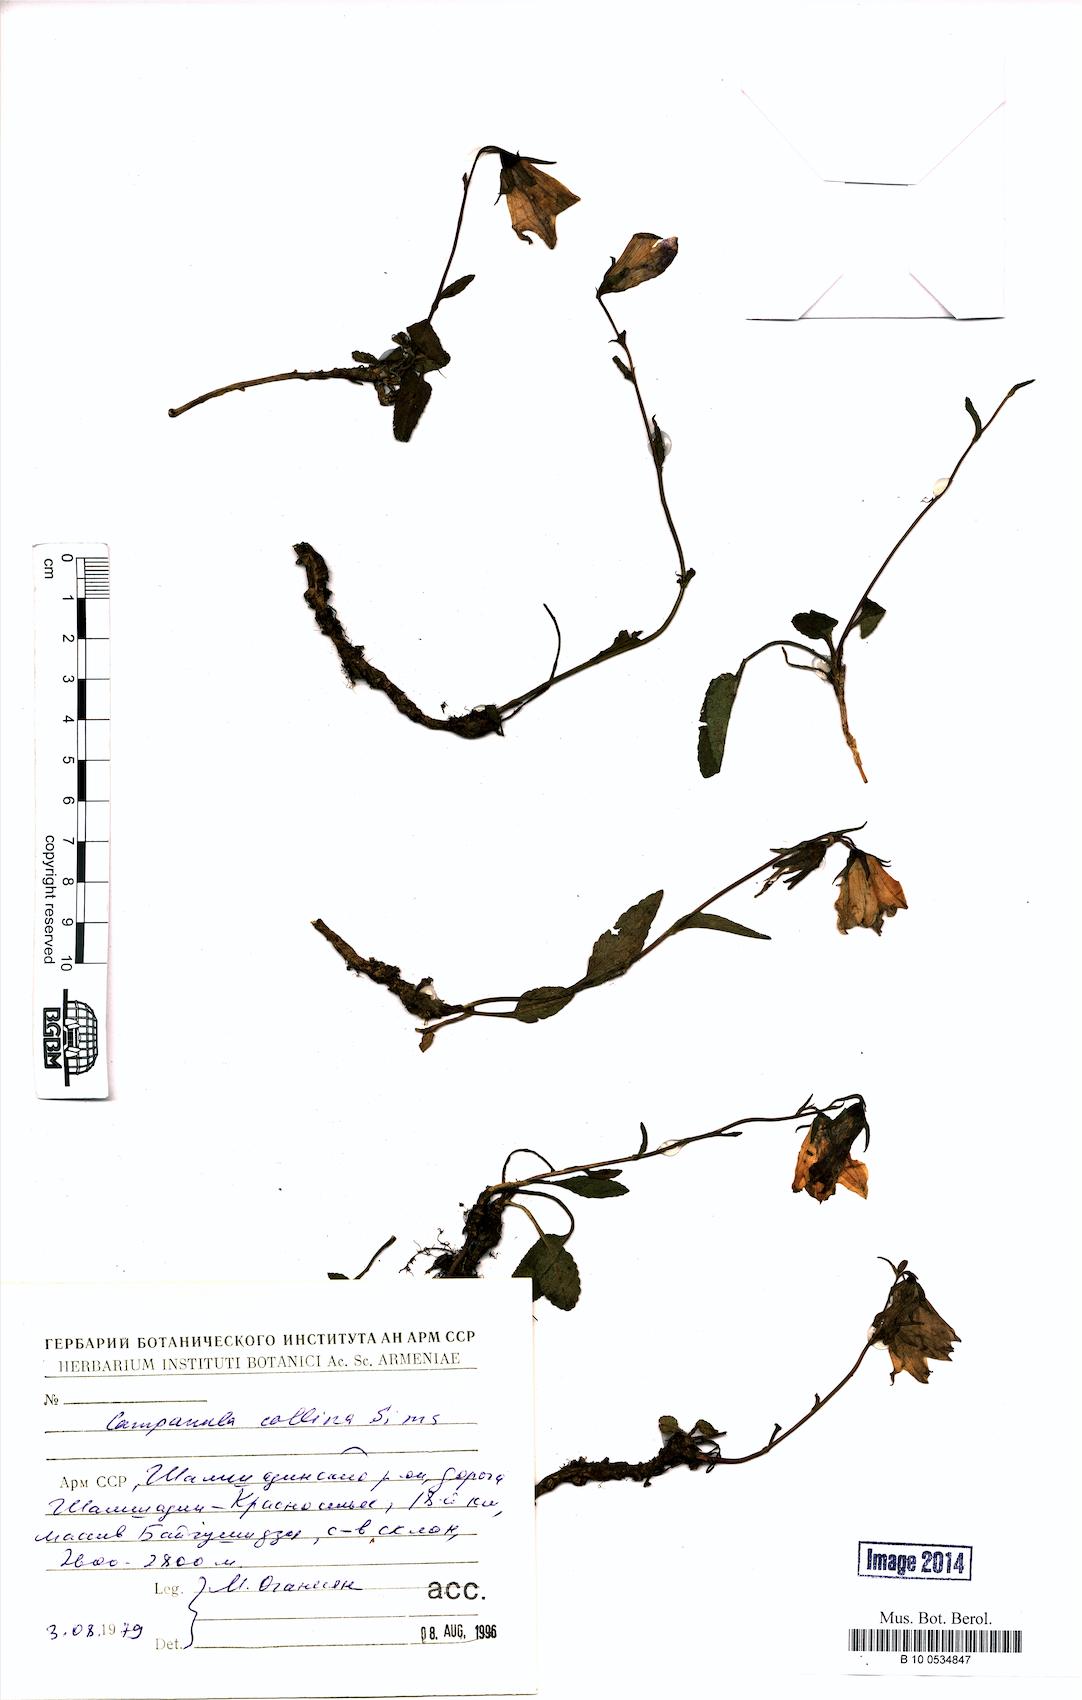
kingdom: Plantae
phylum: Tracheophyta
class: Magnoliopsida
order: Asterales
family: Campanulaceae
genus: Campanula
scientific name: Campanula collina
